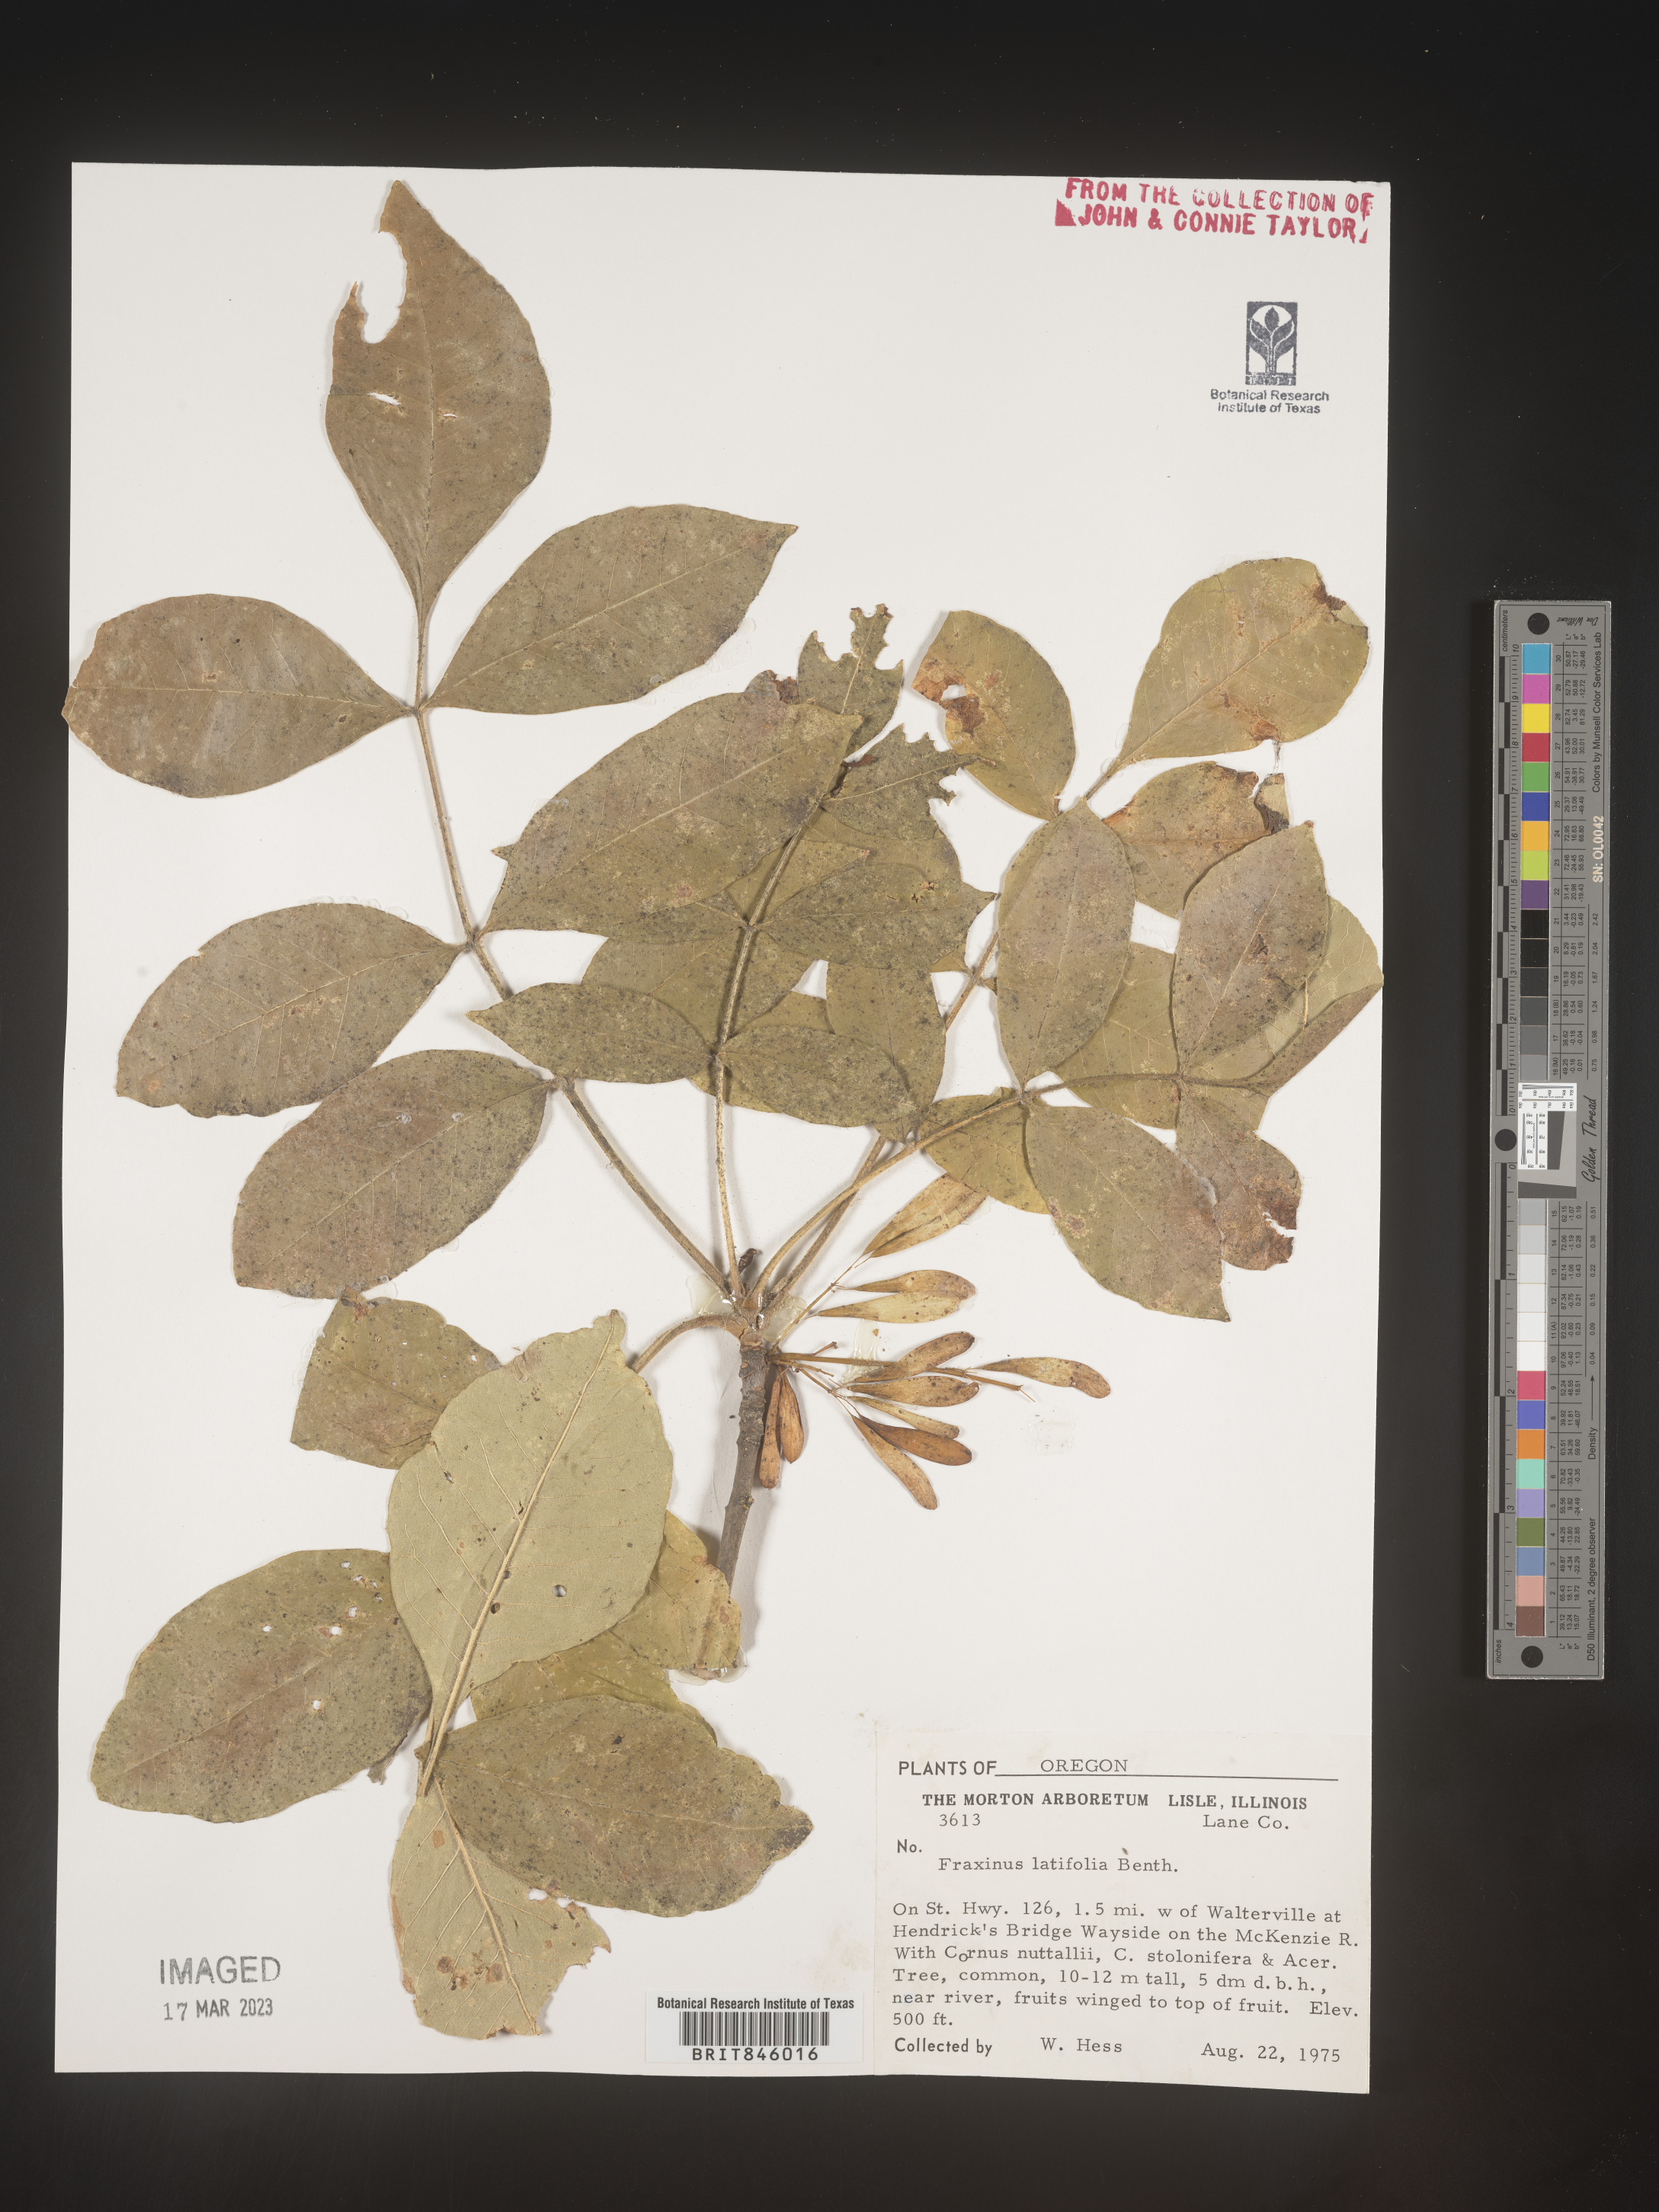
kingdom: Plantae
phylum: Tracheophyta
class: Magnoliopsida
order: Lamiales
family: Oleaceae
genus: Fraxinus
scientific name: Fraxinus latifolia
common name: Oregon ash
